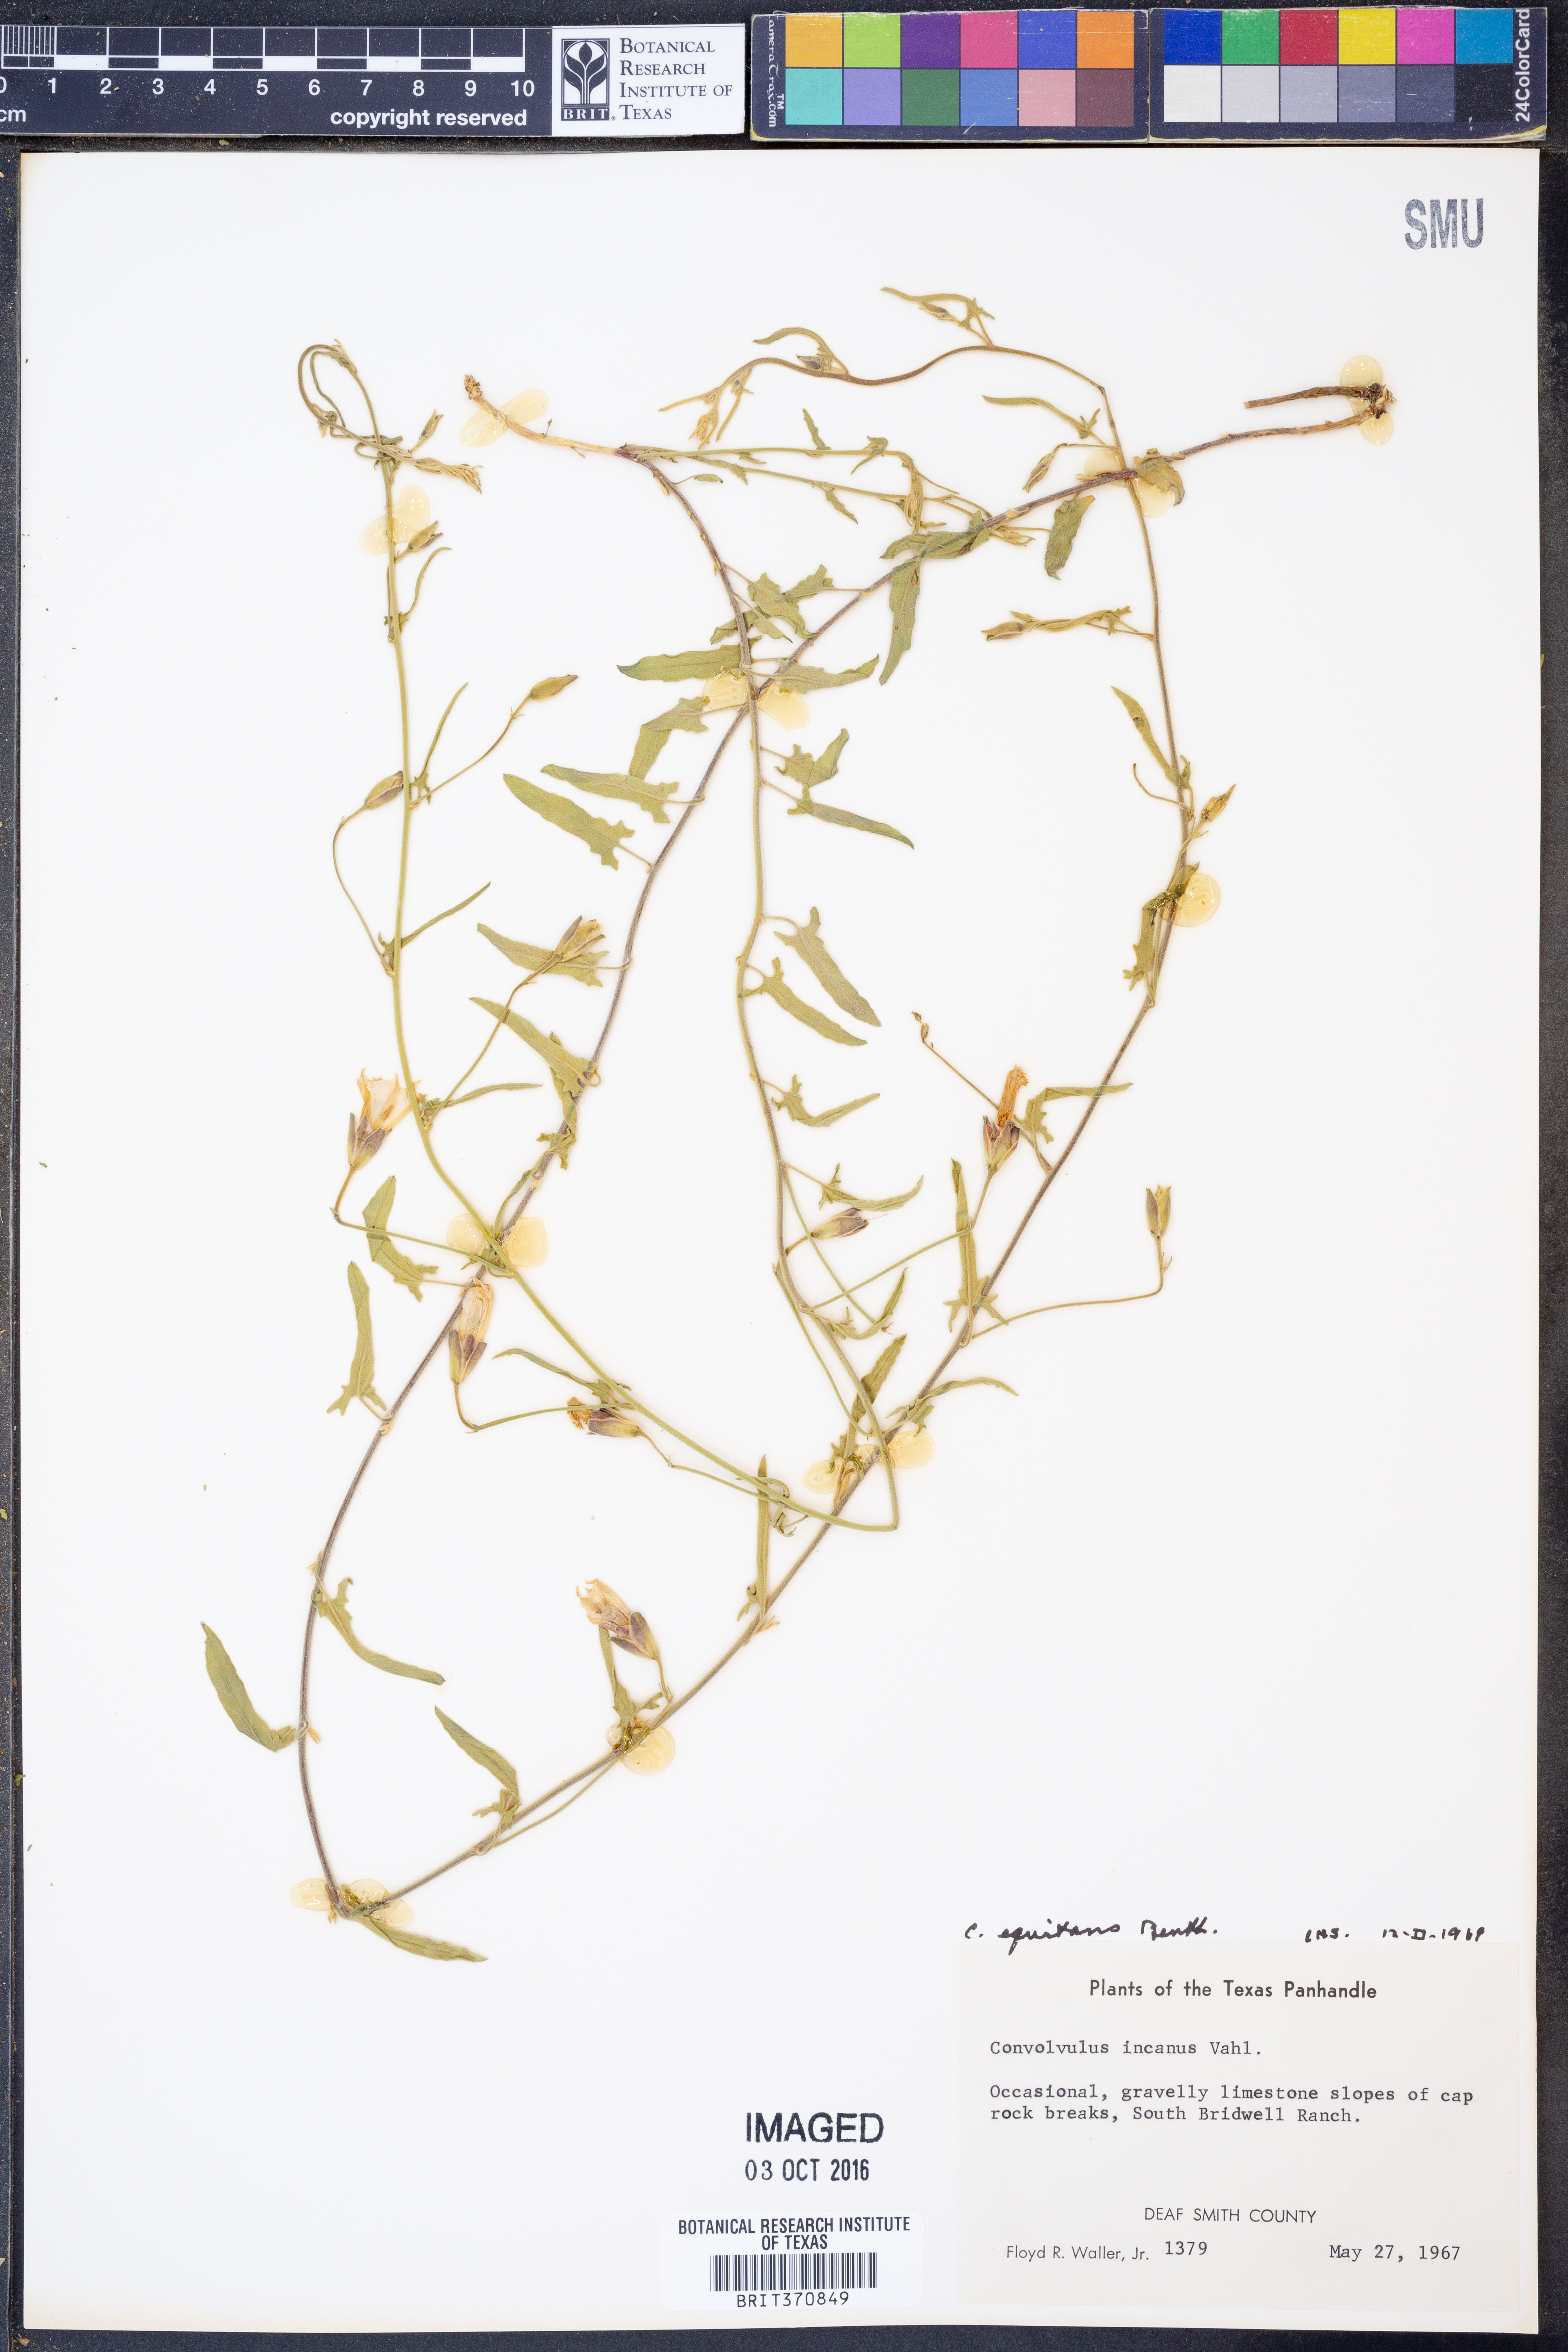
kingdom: Plantae
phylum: Tracheophyta
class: Magnoliopsida
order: Solanales
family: Convolvulaceae
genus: Convolvulus
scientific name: Convolvulus equitans
